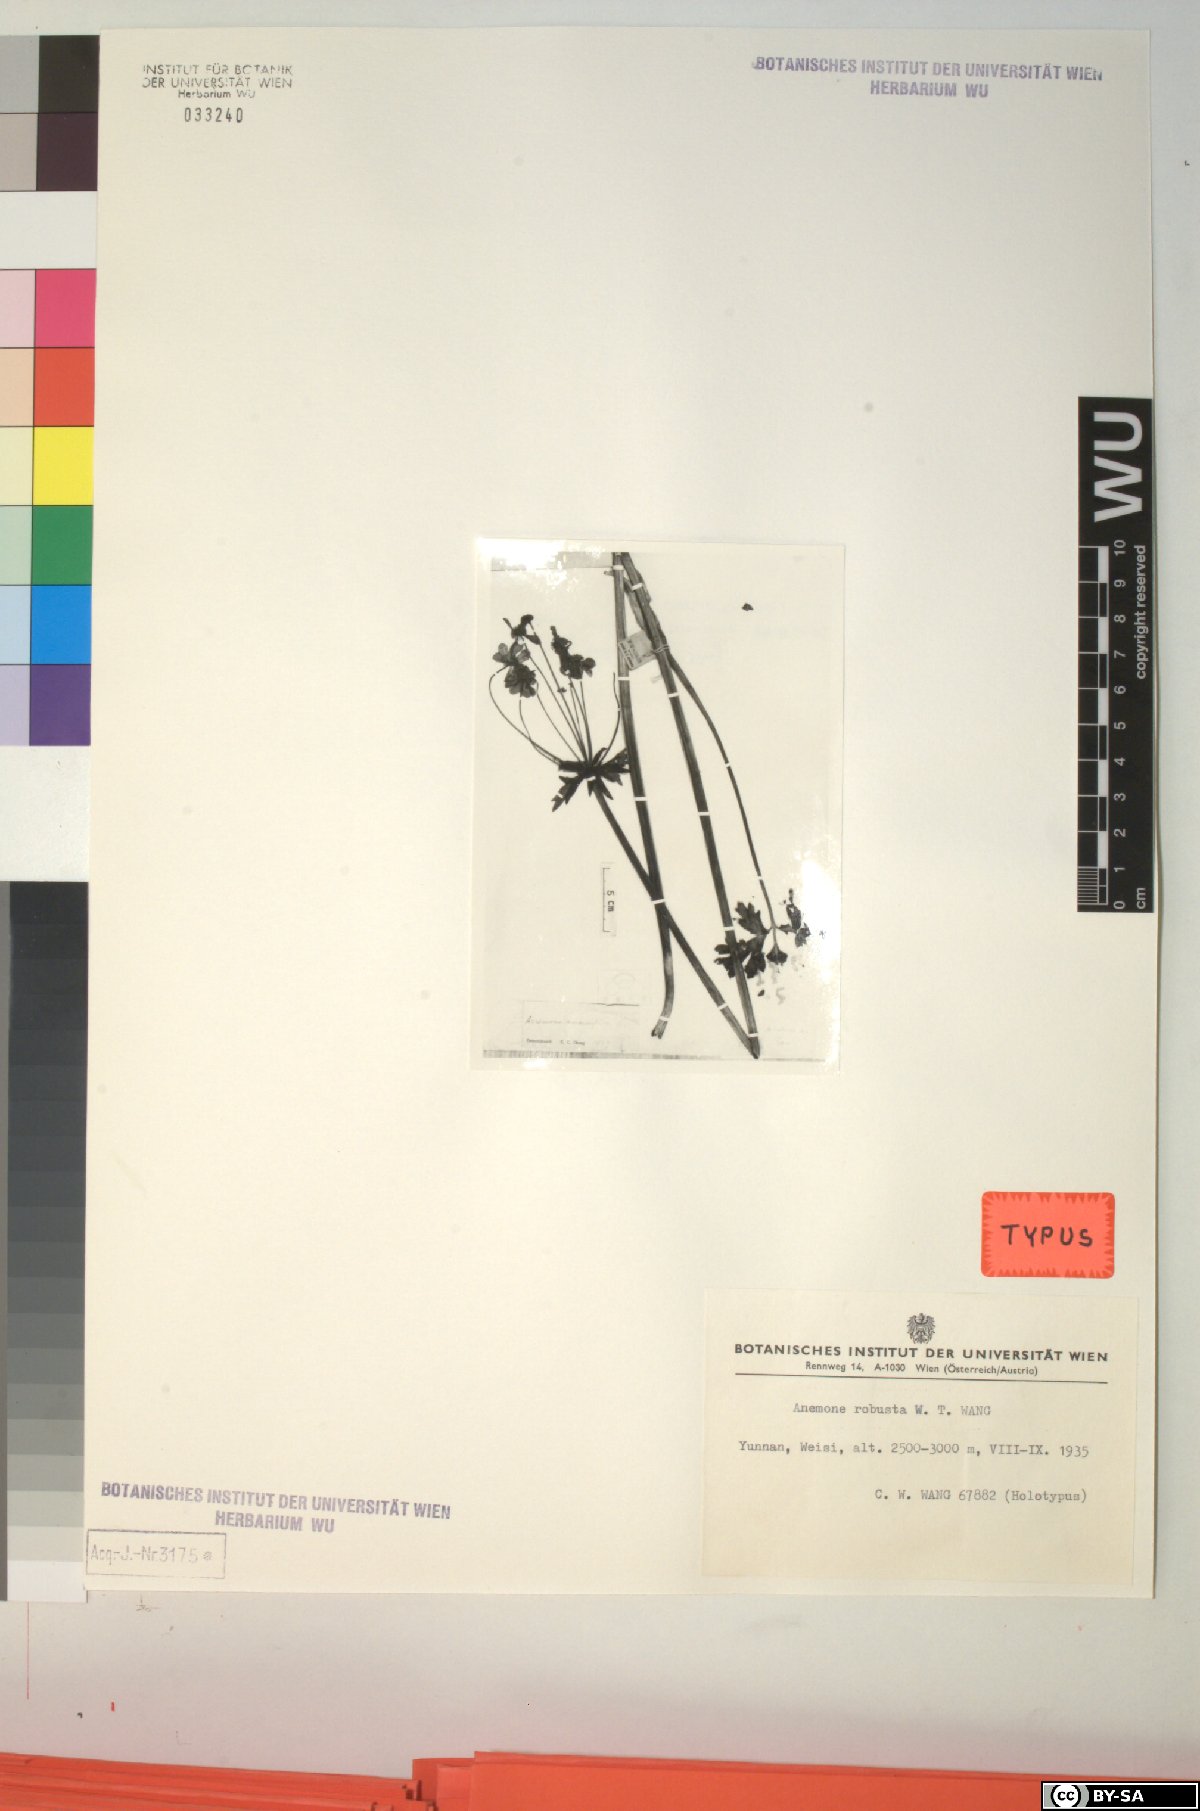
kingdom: Plantae
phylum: Tracheophyta
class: Magnoliopsida
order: Ranunculales
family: Ranunculaceae
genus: Anemone
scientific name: Anemone robusta
